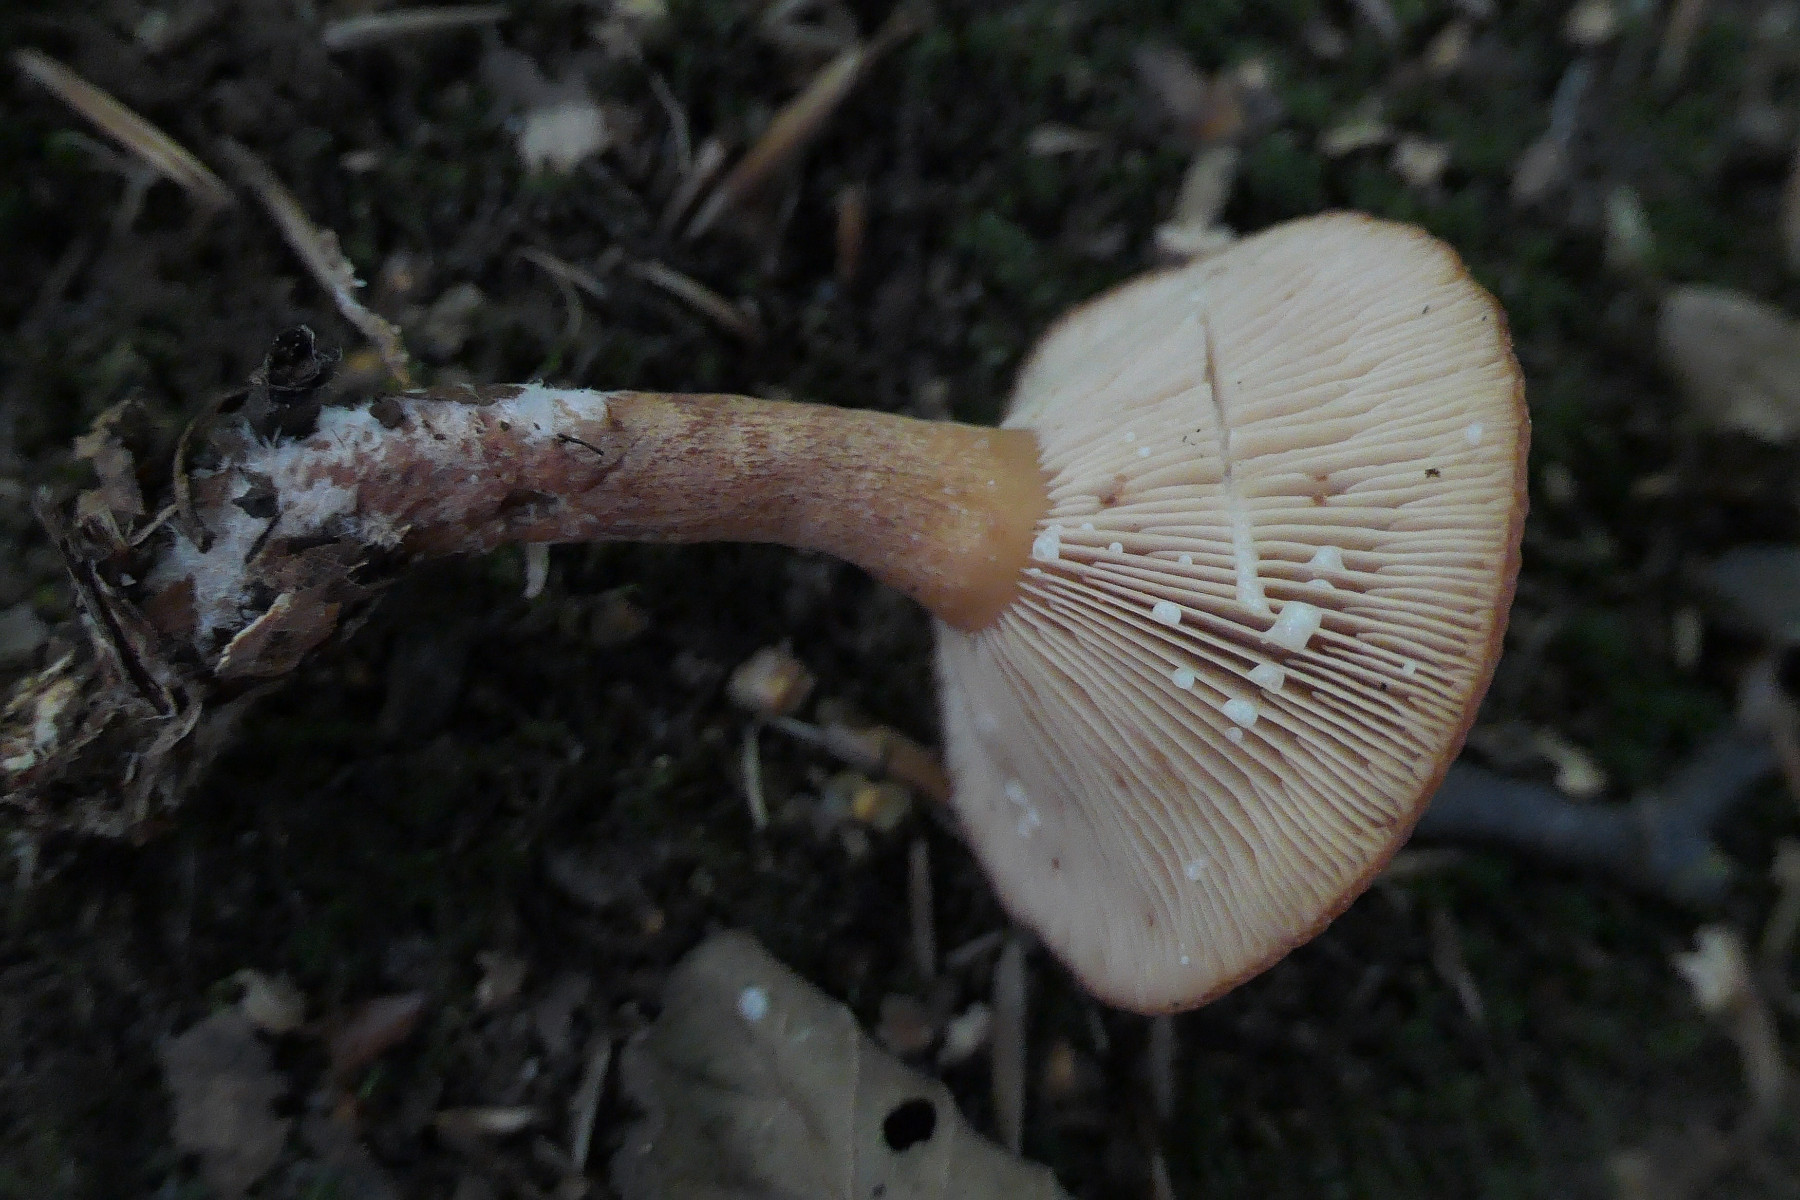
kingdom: Fungi
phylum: Basidiomycota
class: Agaricomycetes
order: Russulales
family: Russulaceae
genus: Lactarius
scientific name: Lactarius aurantiacus
